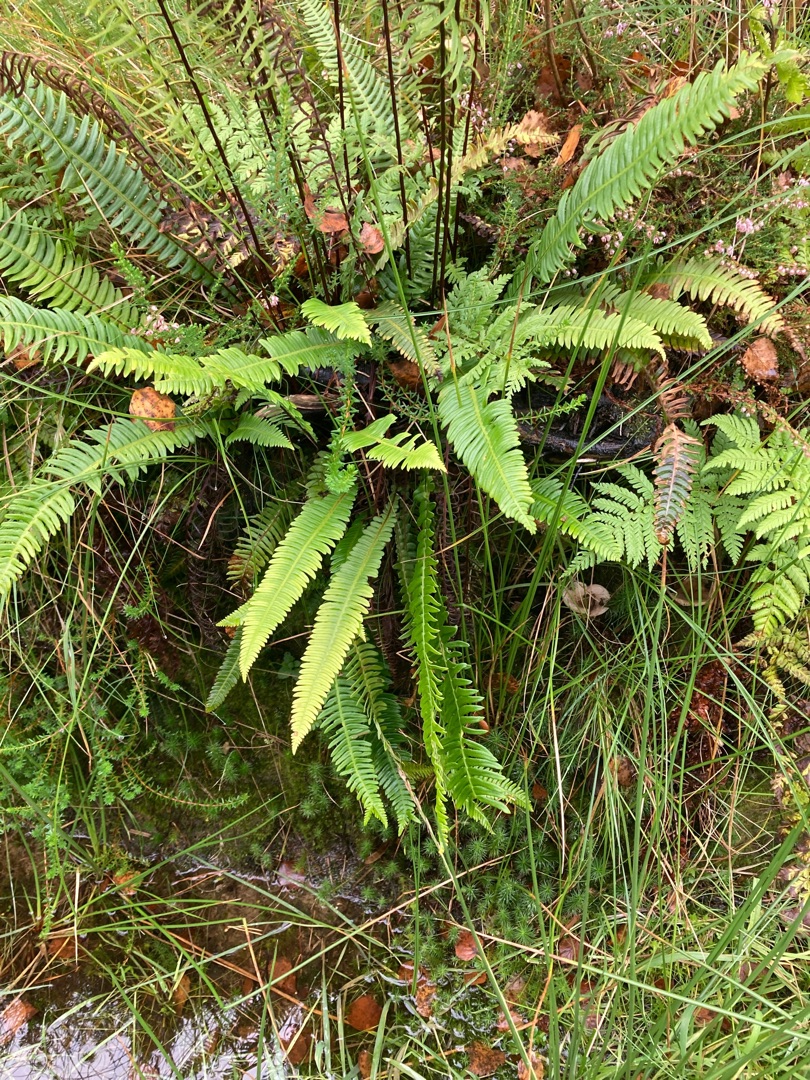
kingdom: Plantae
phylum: Tracheophyta
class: Polypodiopsida
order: Polypodiales
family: Blechnaceae
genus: Struthiopteris
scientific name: Struthiopteris spicant
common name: Kambregne
